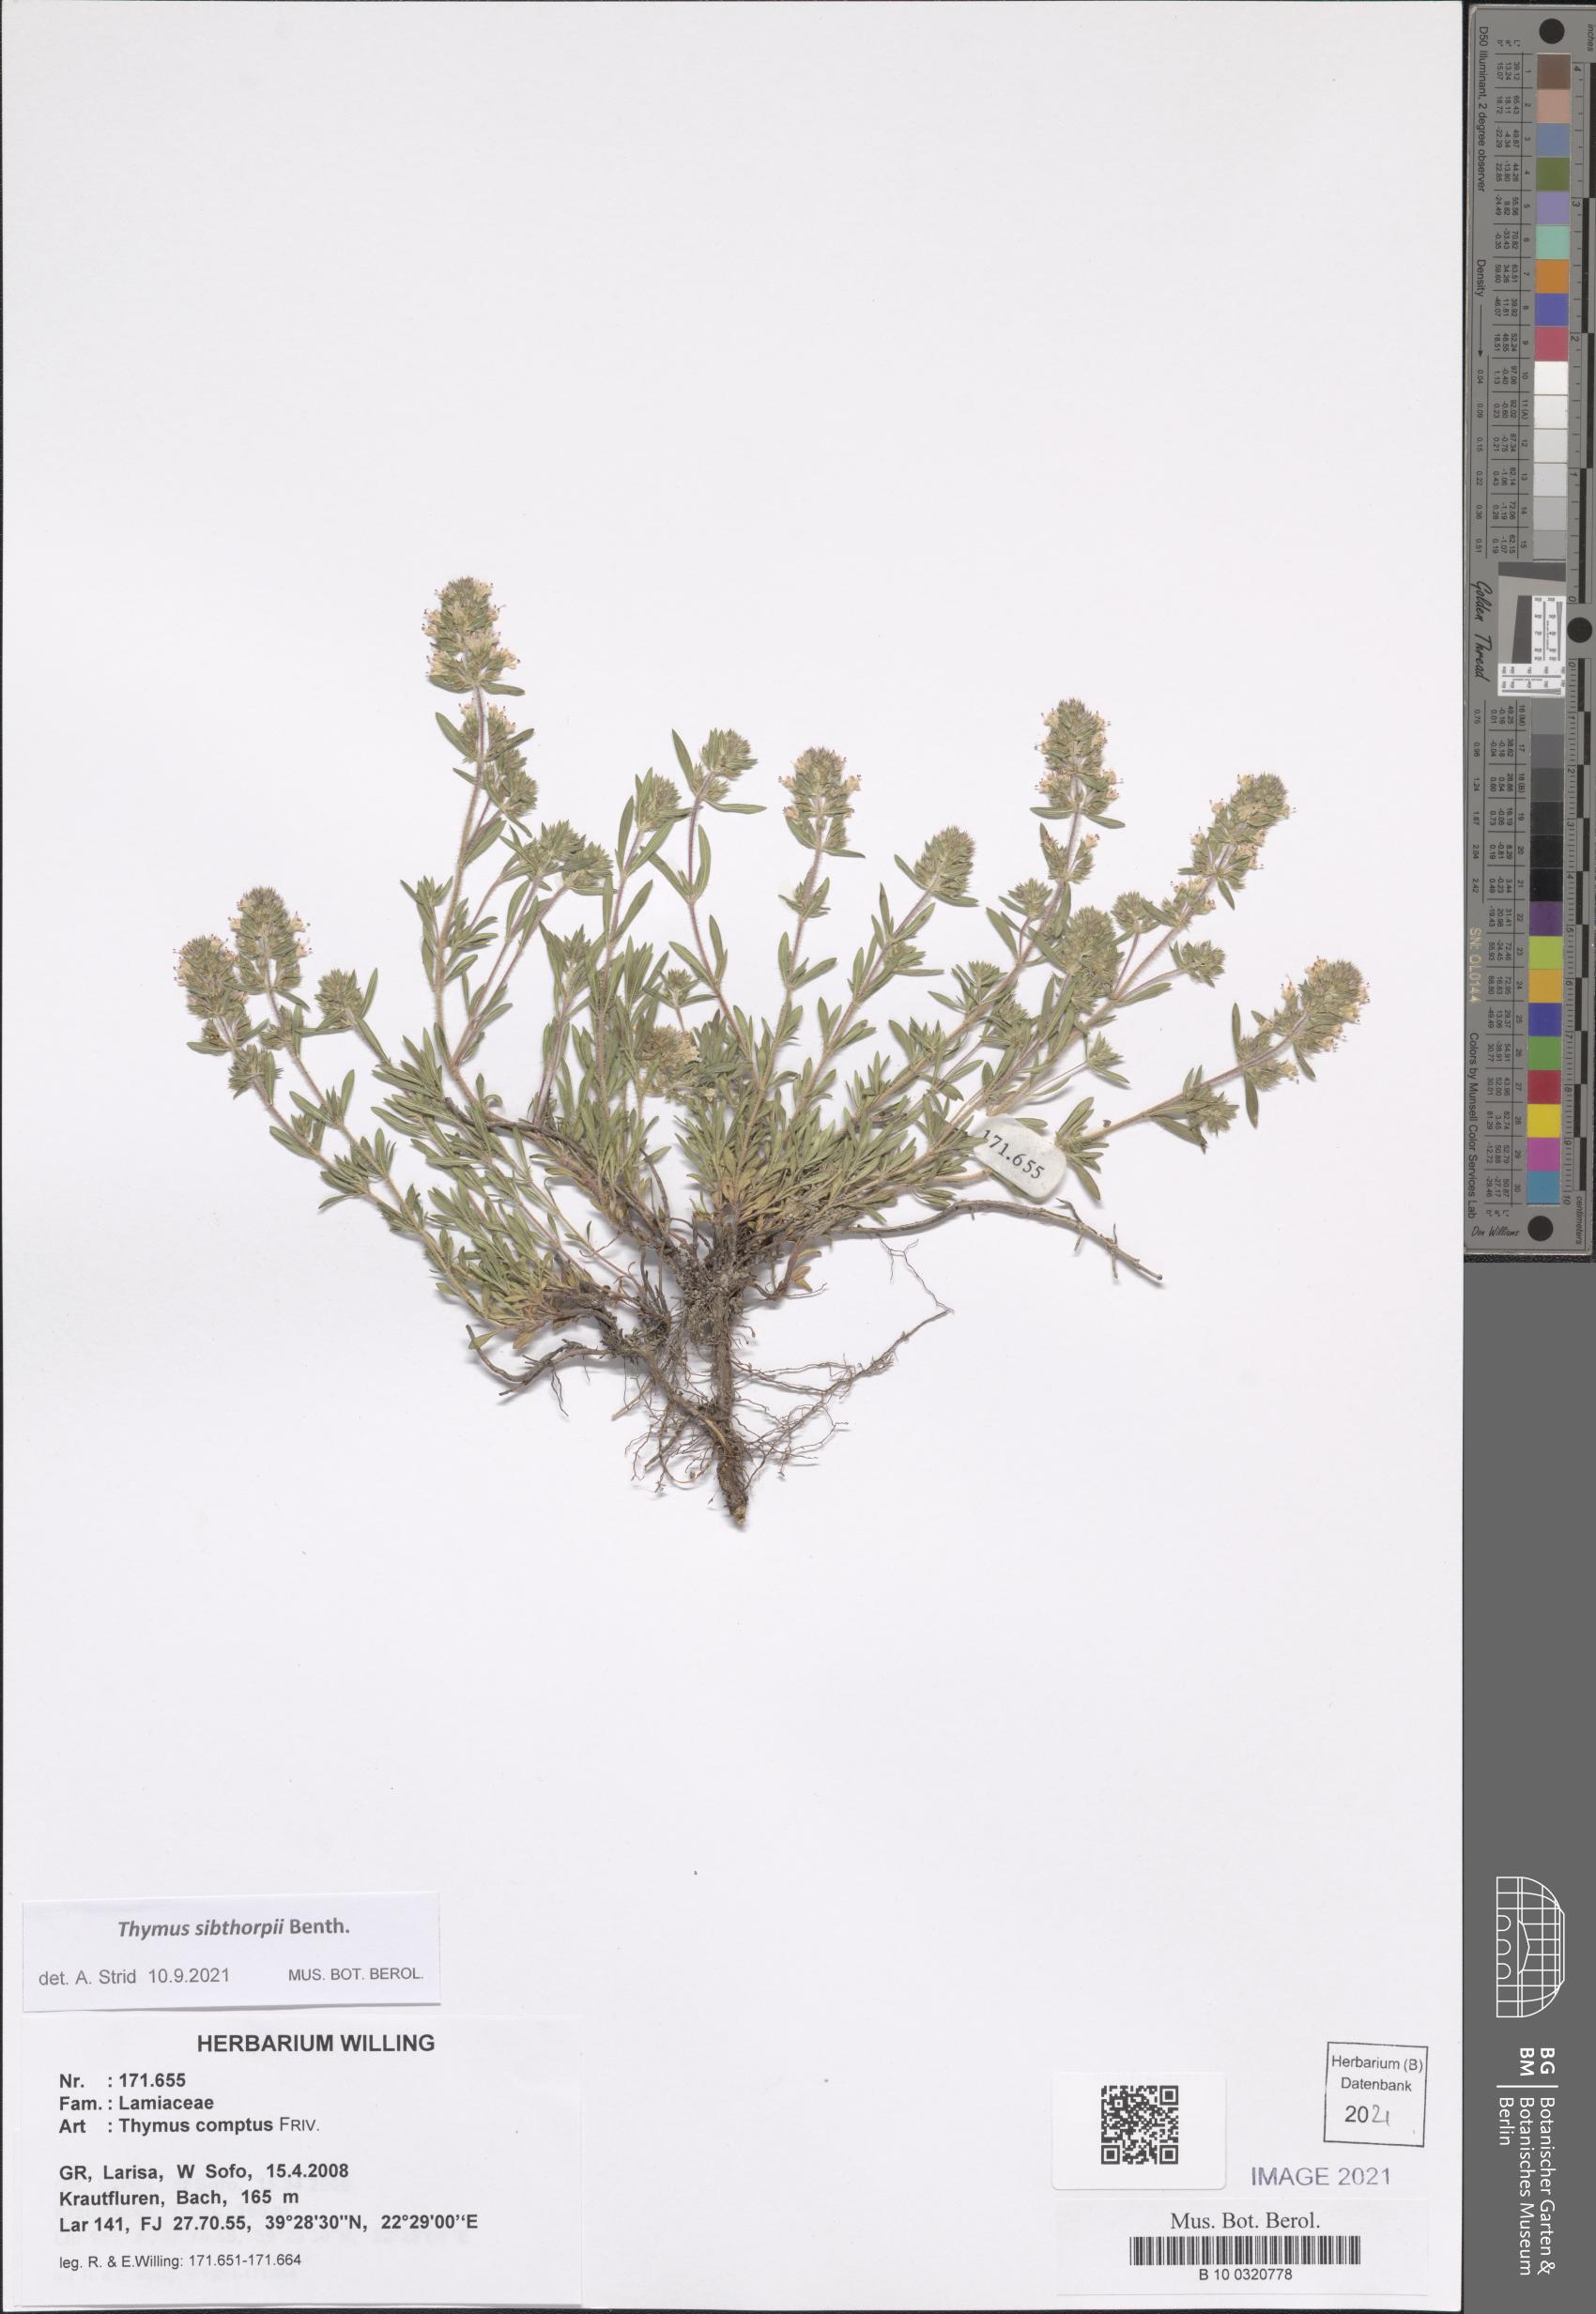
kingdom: Plantae
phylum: Tracheophyta
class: Magnoliopsida
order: Lamiales
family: Lamiaceae
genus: Thymus
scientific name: Thymus sibthorpii
